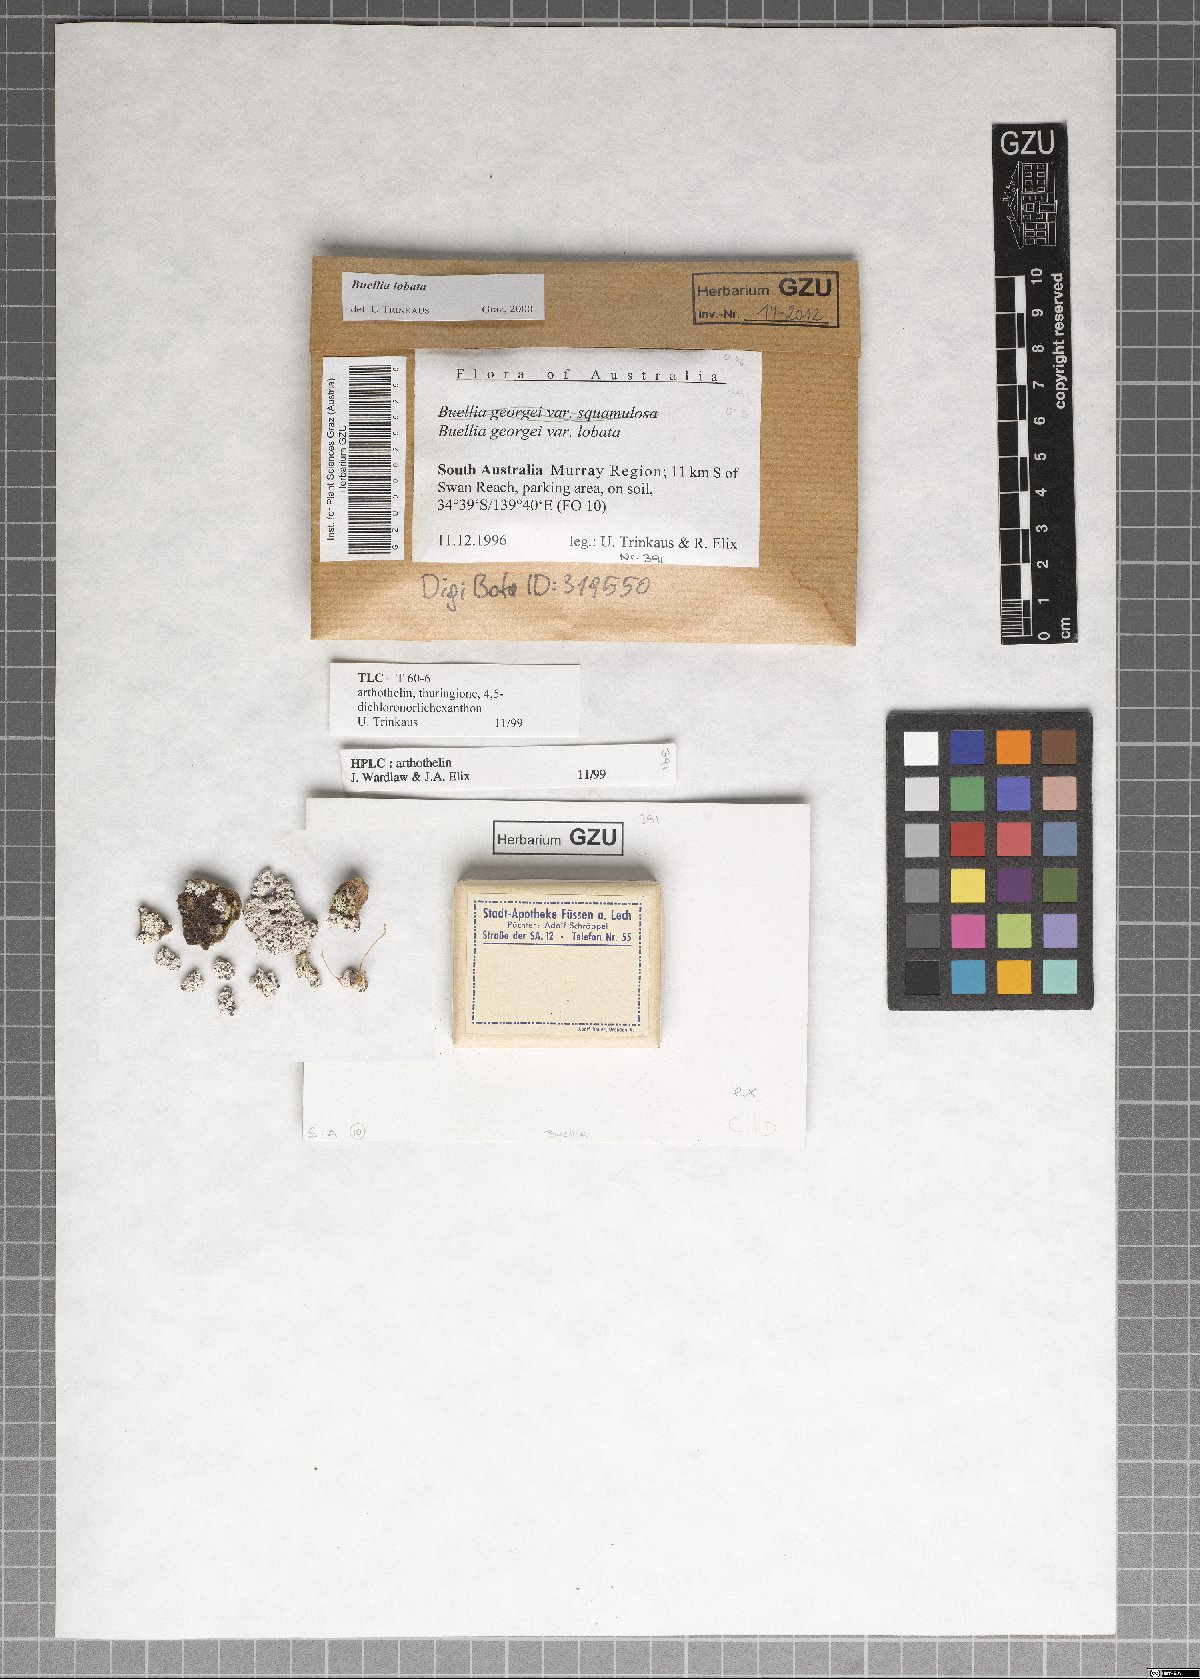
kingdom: Fungi
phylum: Ascomycota
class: Lecanoromycetes
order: Caliciales
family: Caliciaceae
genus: Buellia
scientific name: Buellia lobata
